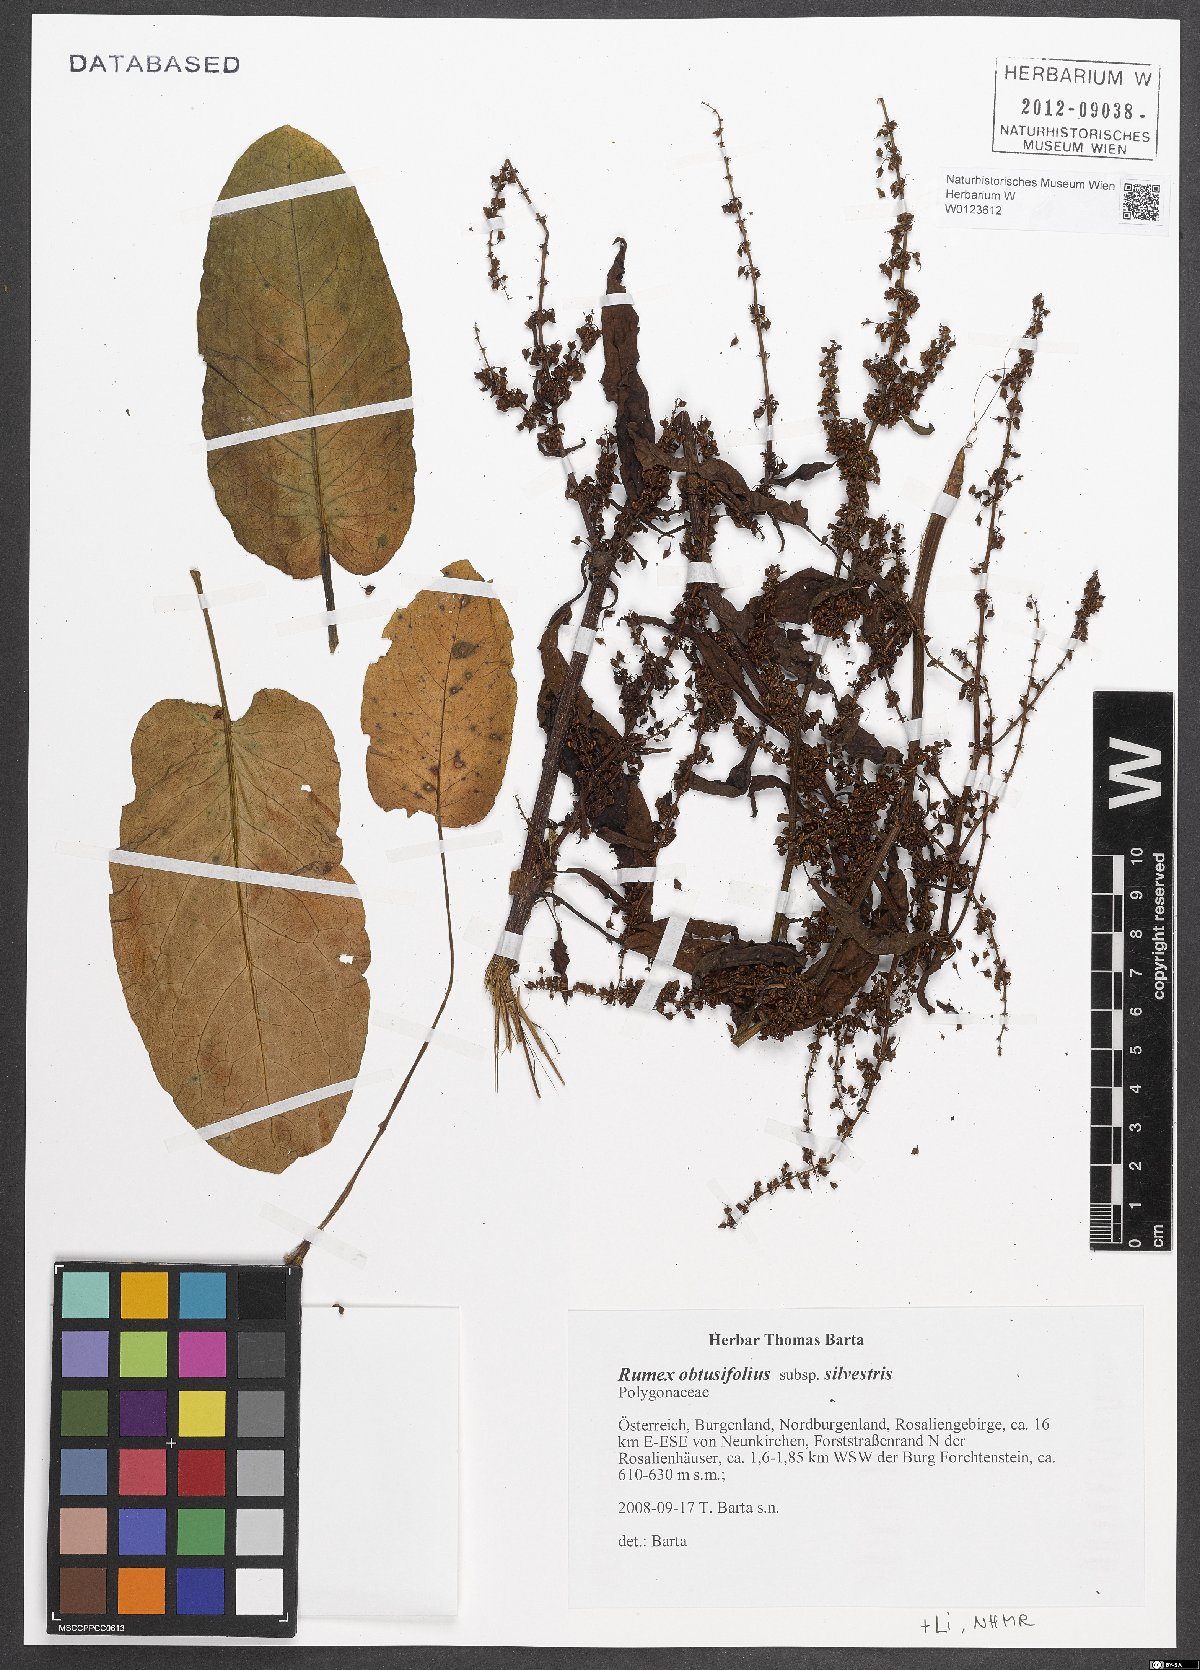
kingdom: Plantae
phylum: Tracheophyta
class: Magnoliopsida
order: Caryophyllales
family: Polygonaceae
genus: Rumex
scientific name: Rumex obtusifolius
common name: Bitter dock
